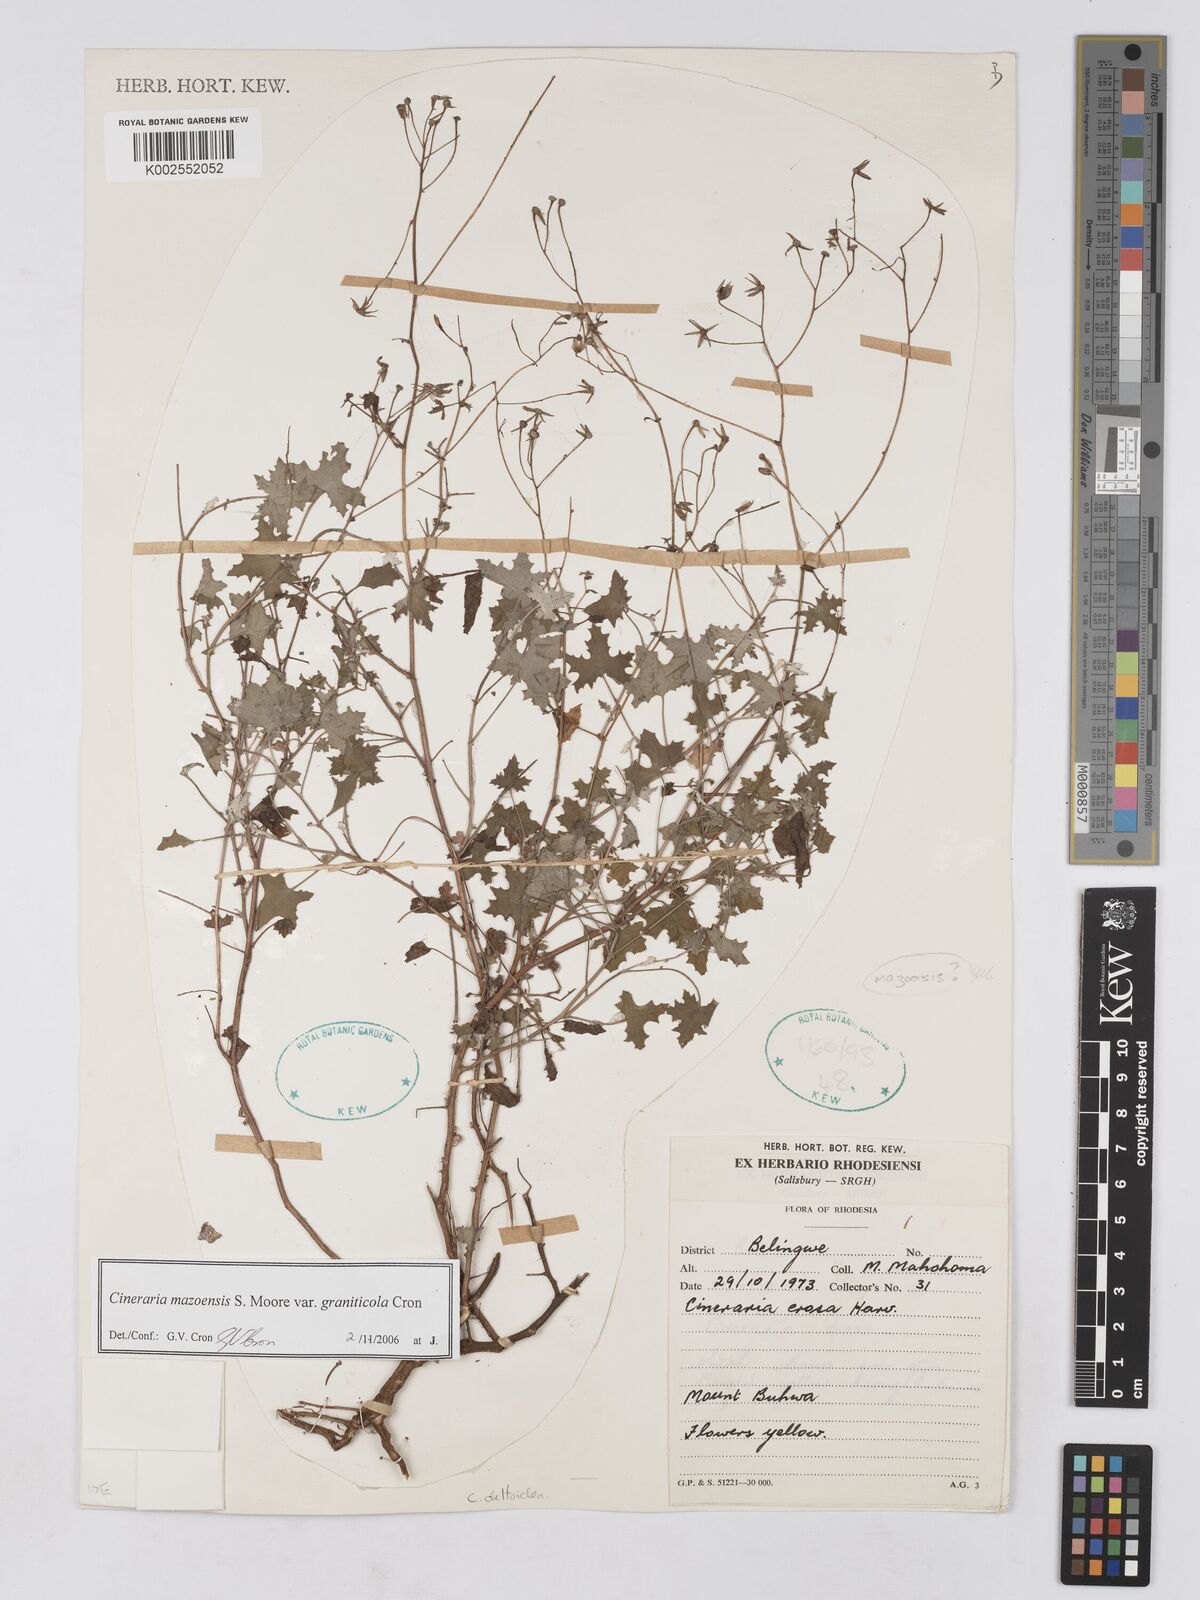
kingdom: Plantae
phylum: Tracheophyta
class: Magnoliopsida
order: Asterales
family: Asteraceae
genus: Cineraria
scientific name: Cineraria mazoensis
